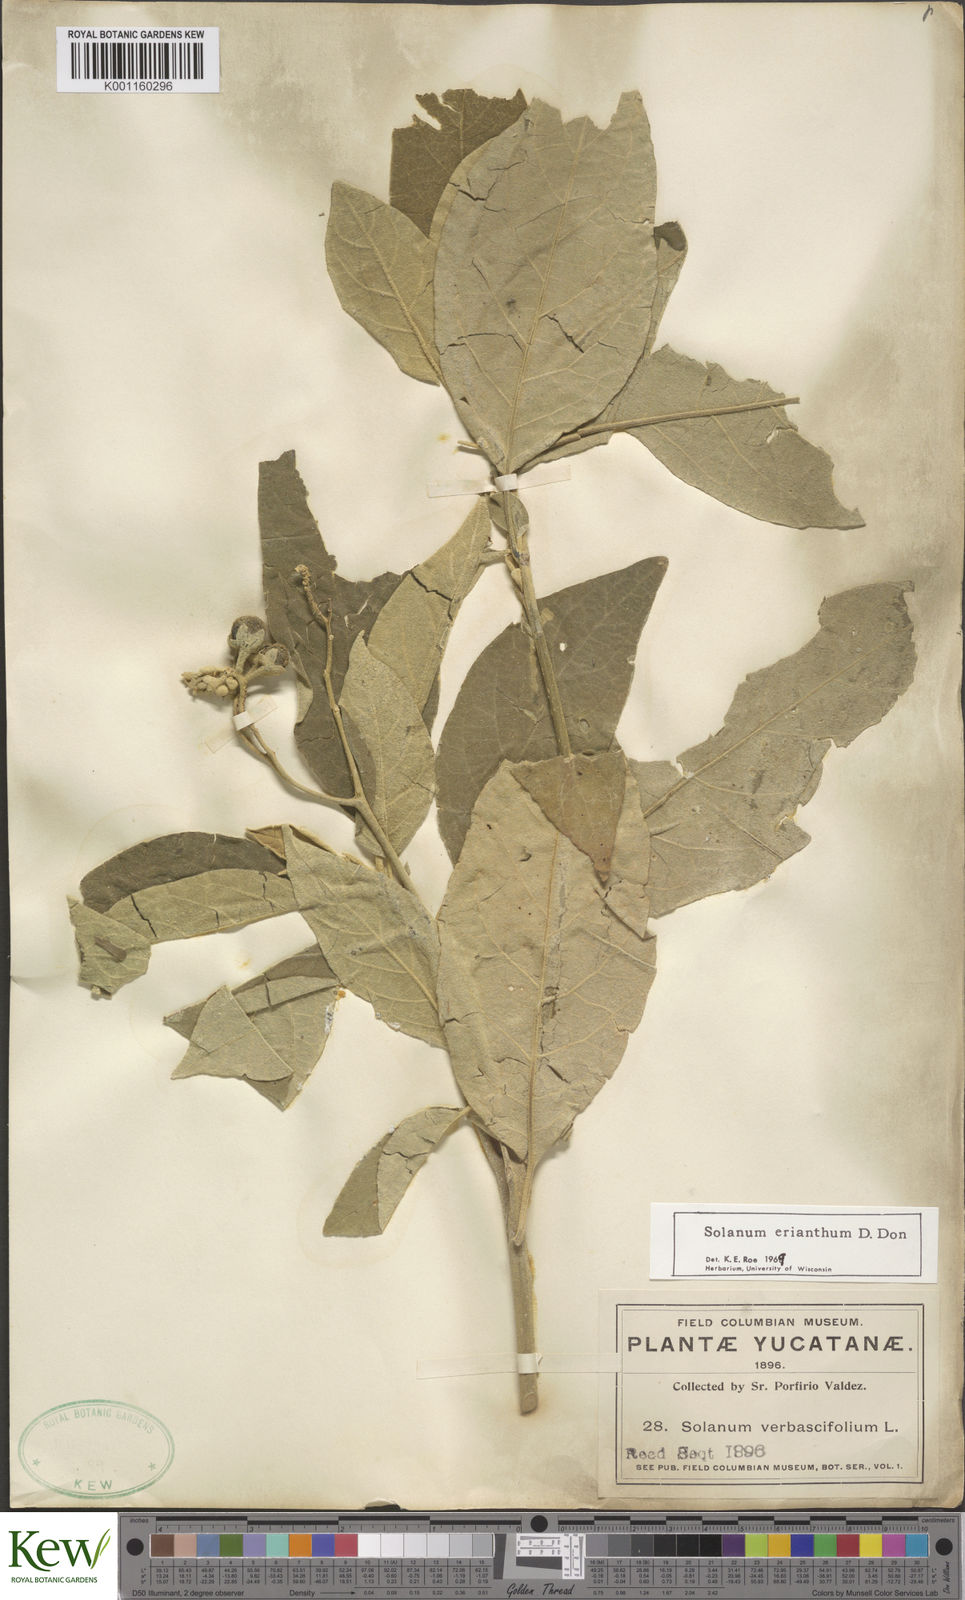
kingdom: Plantae
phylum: Tracheophyta
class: Magnoliopsida
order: Solanales
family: Solanaceae
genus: Solanum
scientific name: Solanum erianthum
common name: Tobacco-tree
